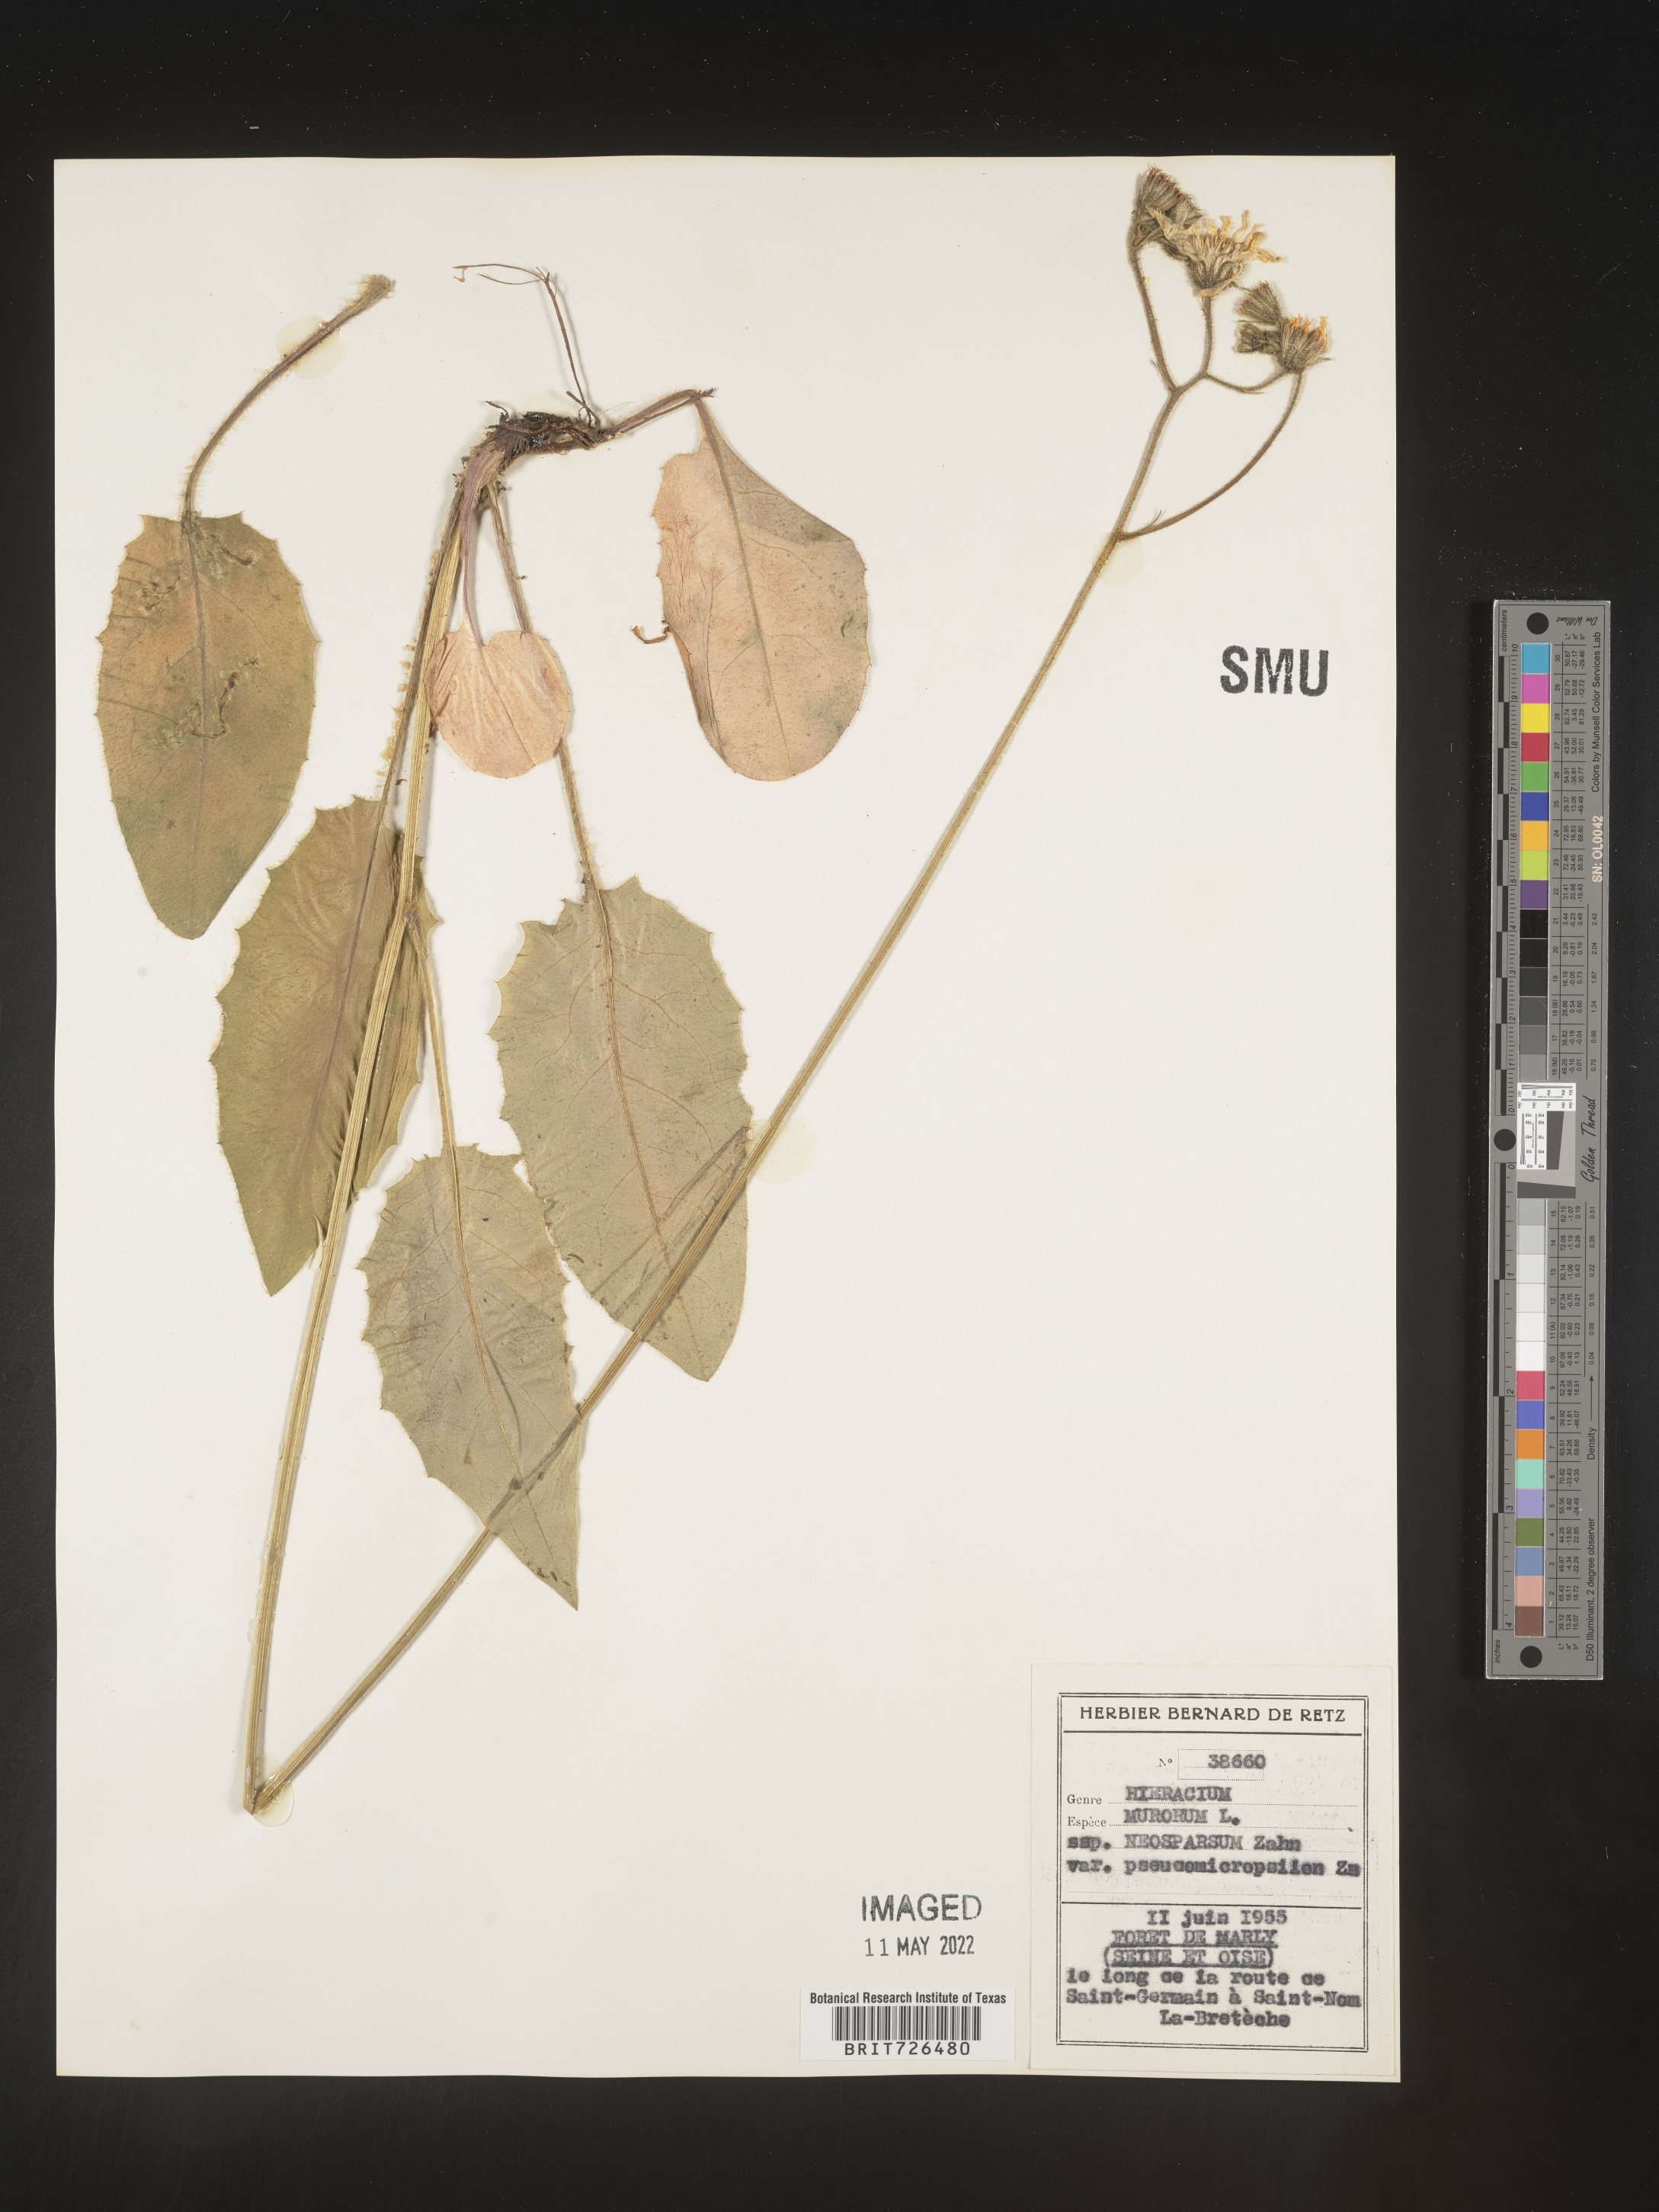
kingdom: Plantae
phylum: Tracheophyta
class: Magnoliopsida
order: Asterales
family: Asteraceae
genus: Hieracium
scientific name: Hieracium
